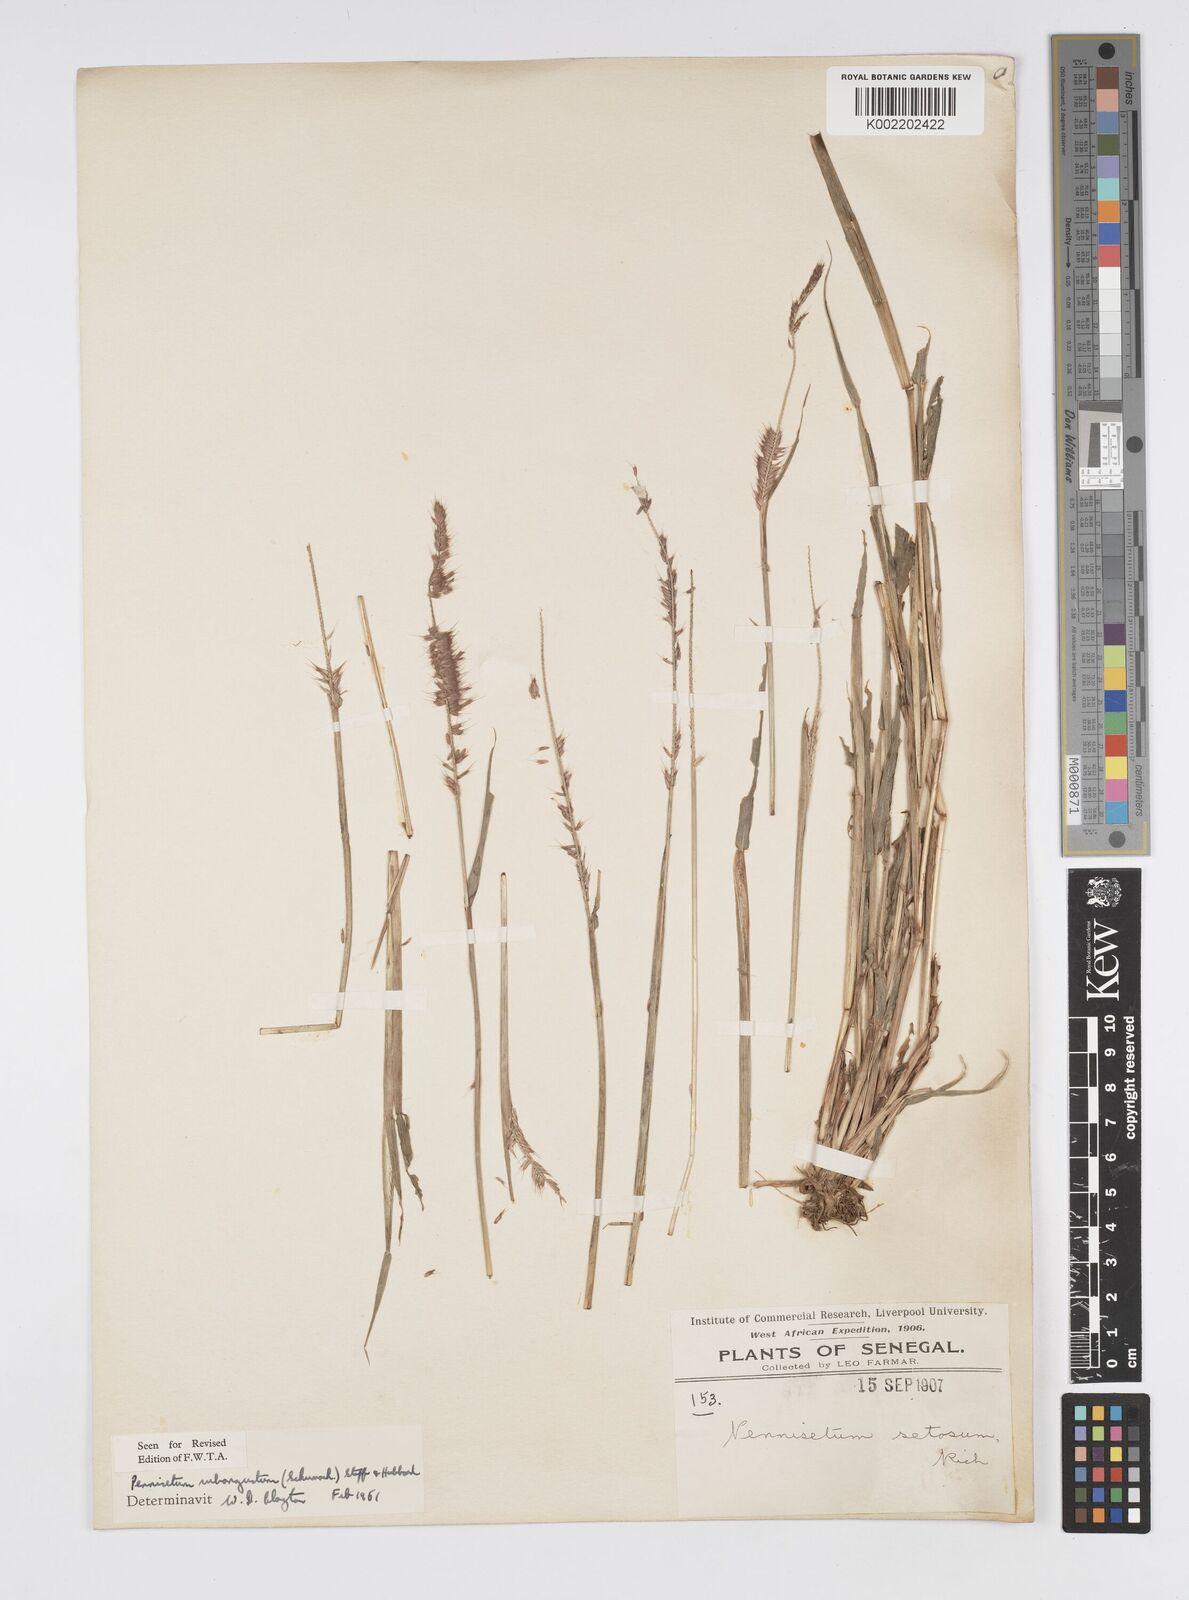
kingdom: Plantae
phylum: Tracheophyta
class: Liliopsida
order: Poales
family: Poaceae
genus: Setaria
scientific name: Setaria parviflora
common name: Knotroot bristle-grass
